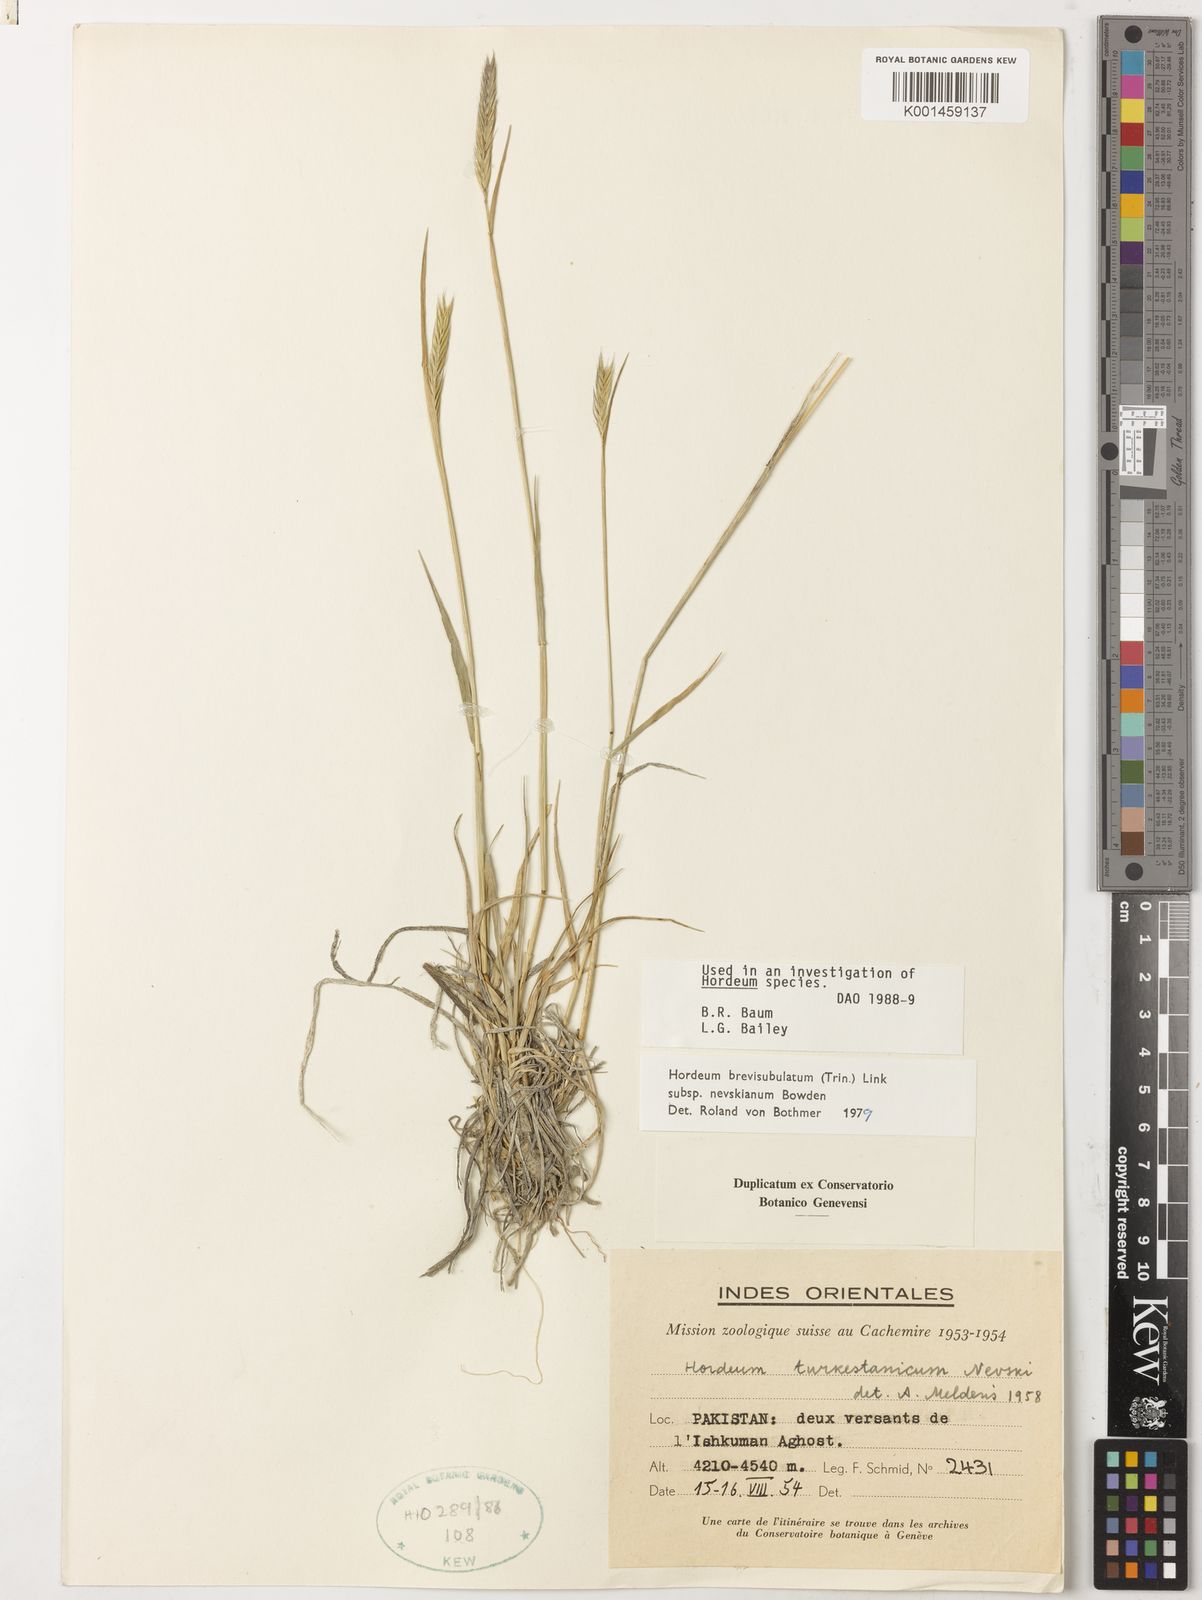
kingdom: Plantae
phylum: Tracheophyta
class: Liliopsida
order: Poales
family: Poaceae
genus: Hordeum
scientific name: Hordeum brevisubulatum
